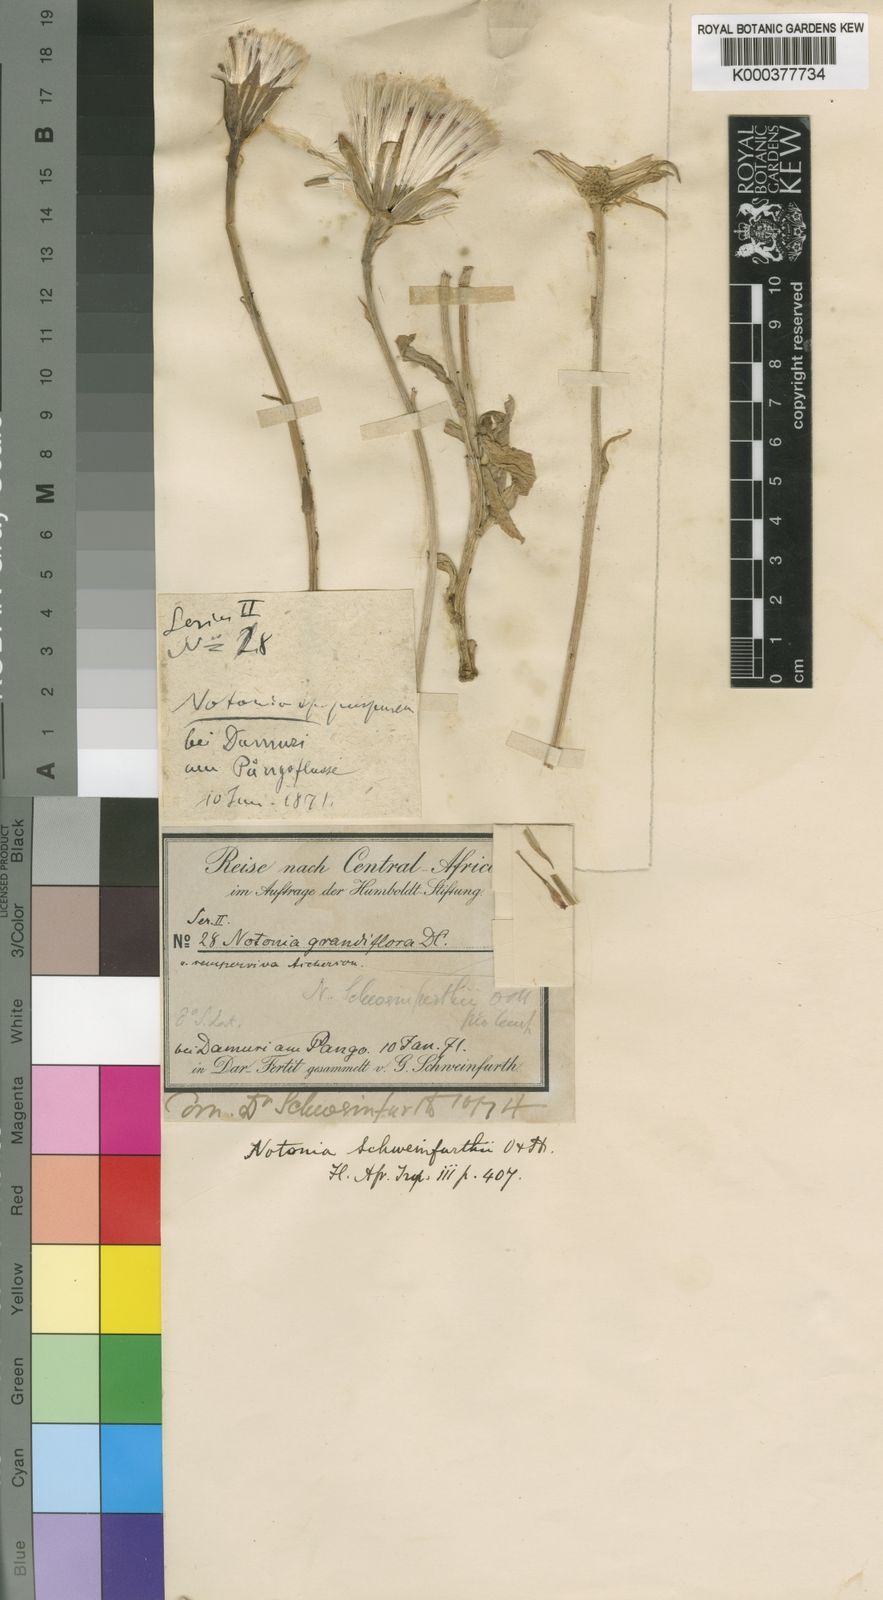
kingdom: Plantae
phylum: Tracheophyta
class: Magnoliopsida
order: Asterales
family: Asteraceae
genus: Kleinia
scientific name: Kleinia schweinfurthii
